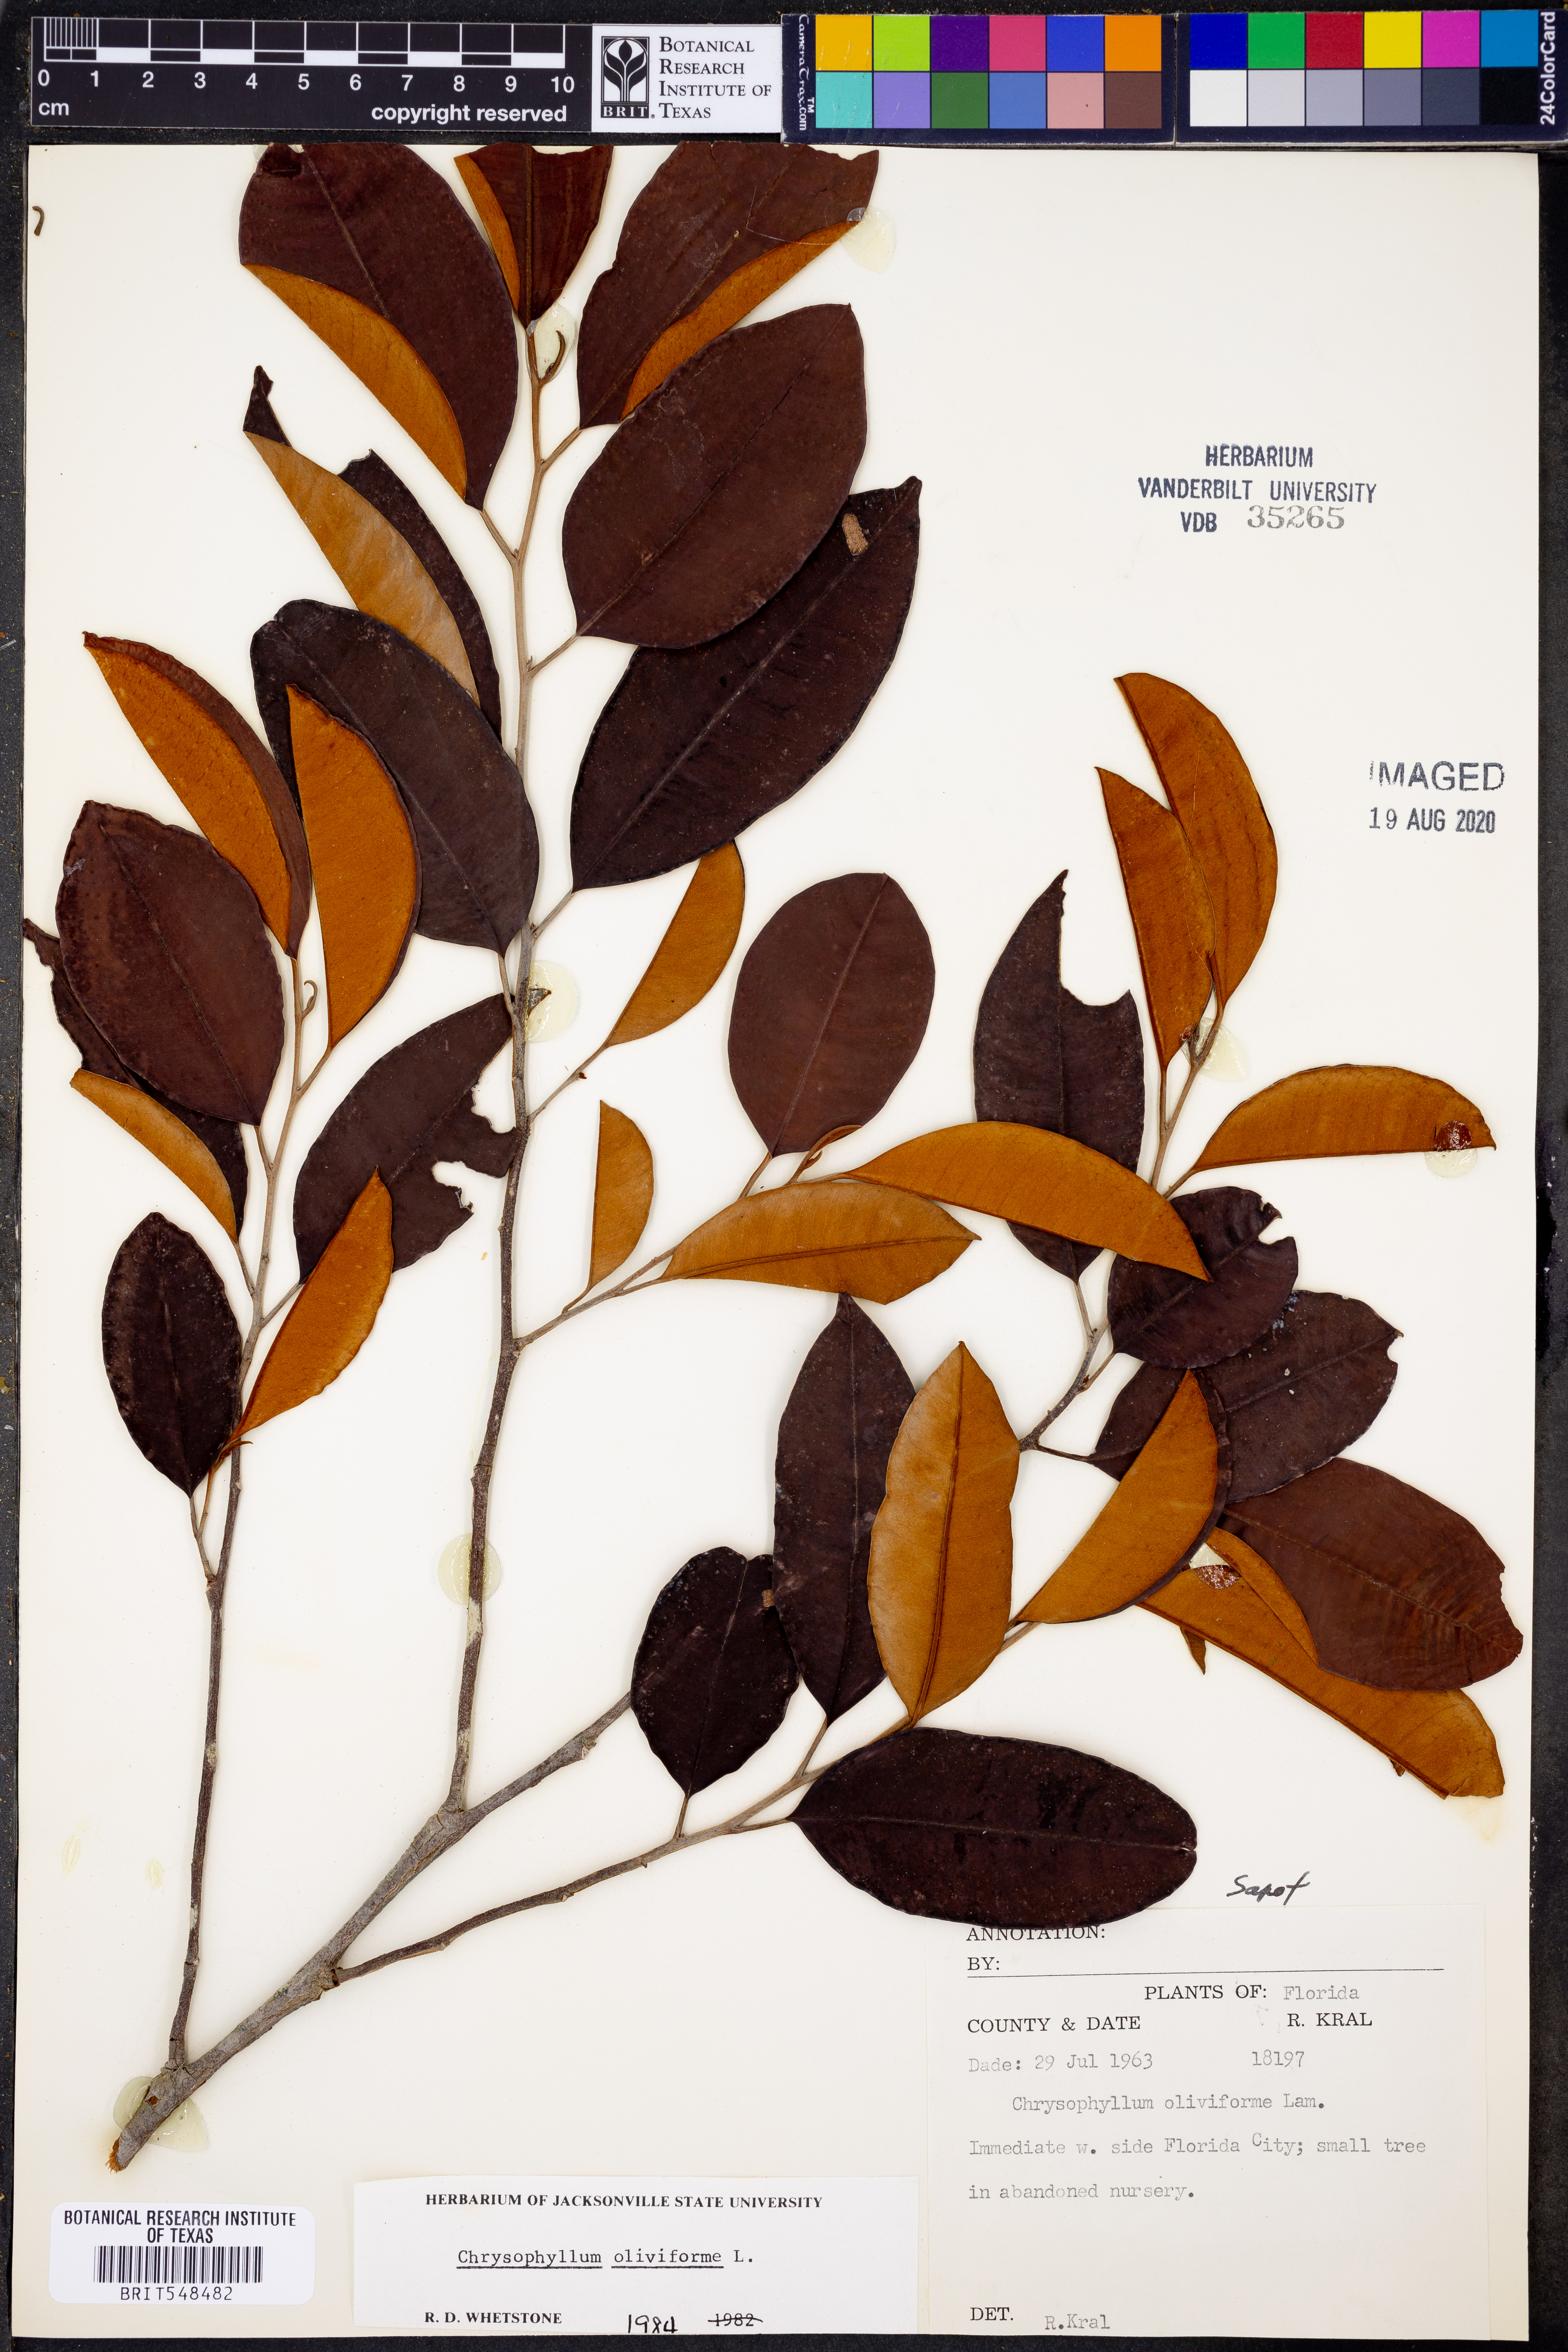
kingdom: Plantae
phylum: Tracheophyta
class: Magnoliopsida
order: Ericales
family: Sapotaceae
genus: Chrysophyllum
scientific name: Chrysophyllum oliviforme
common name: Satinleaf
